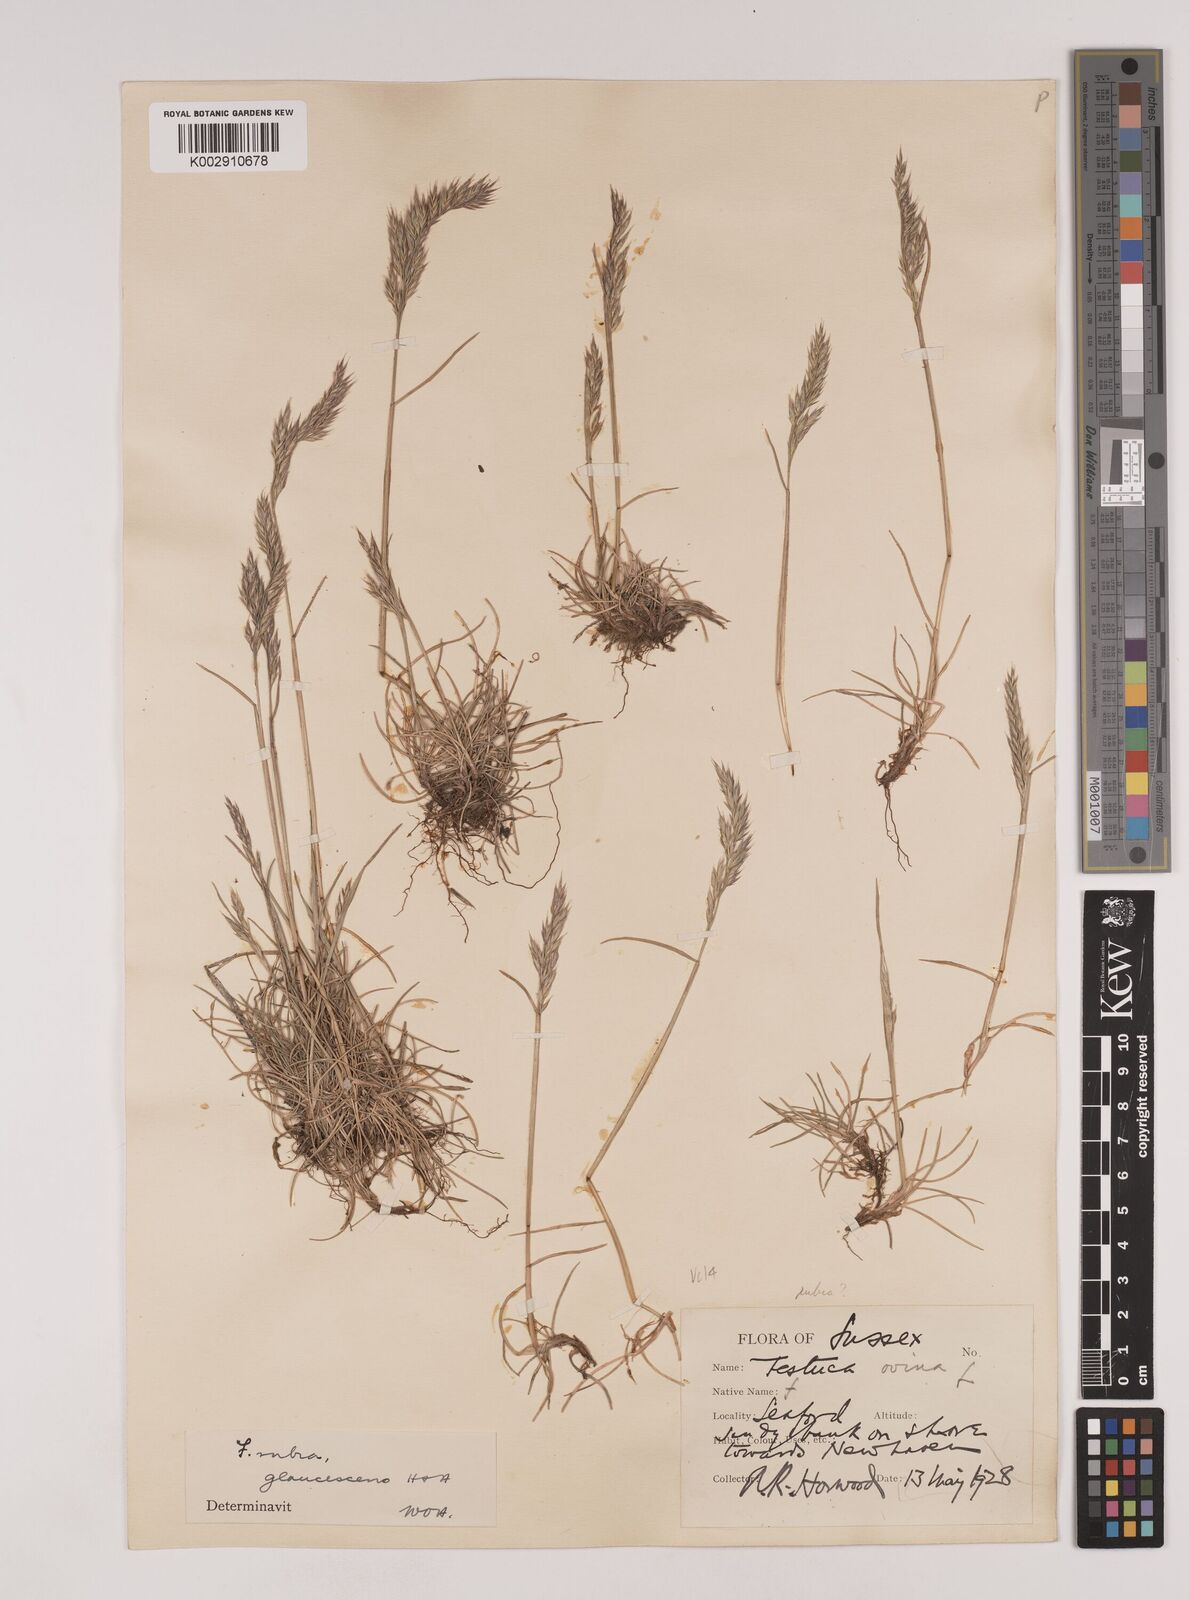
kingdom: Plantae
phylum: Tracheophyta
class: Liliopsida
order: Poales
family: Poaceae
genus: Festuca
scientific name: Festuca rubra
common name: Red fescue
